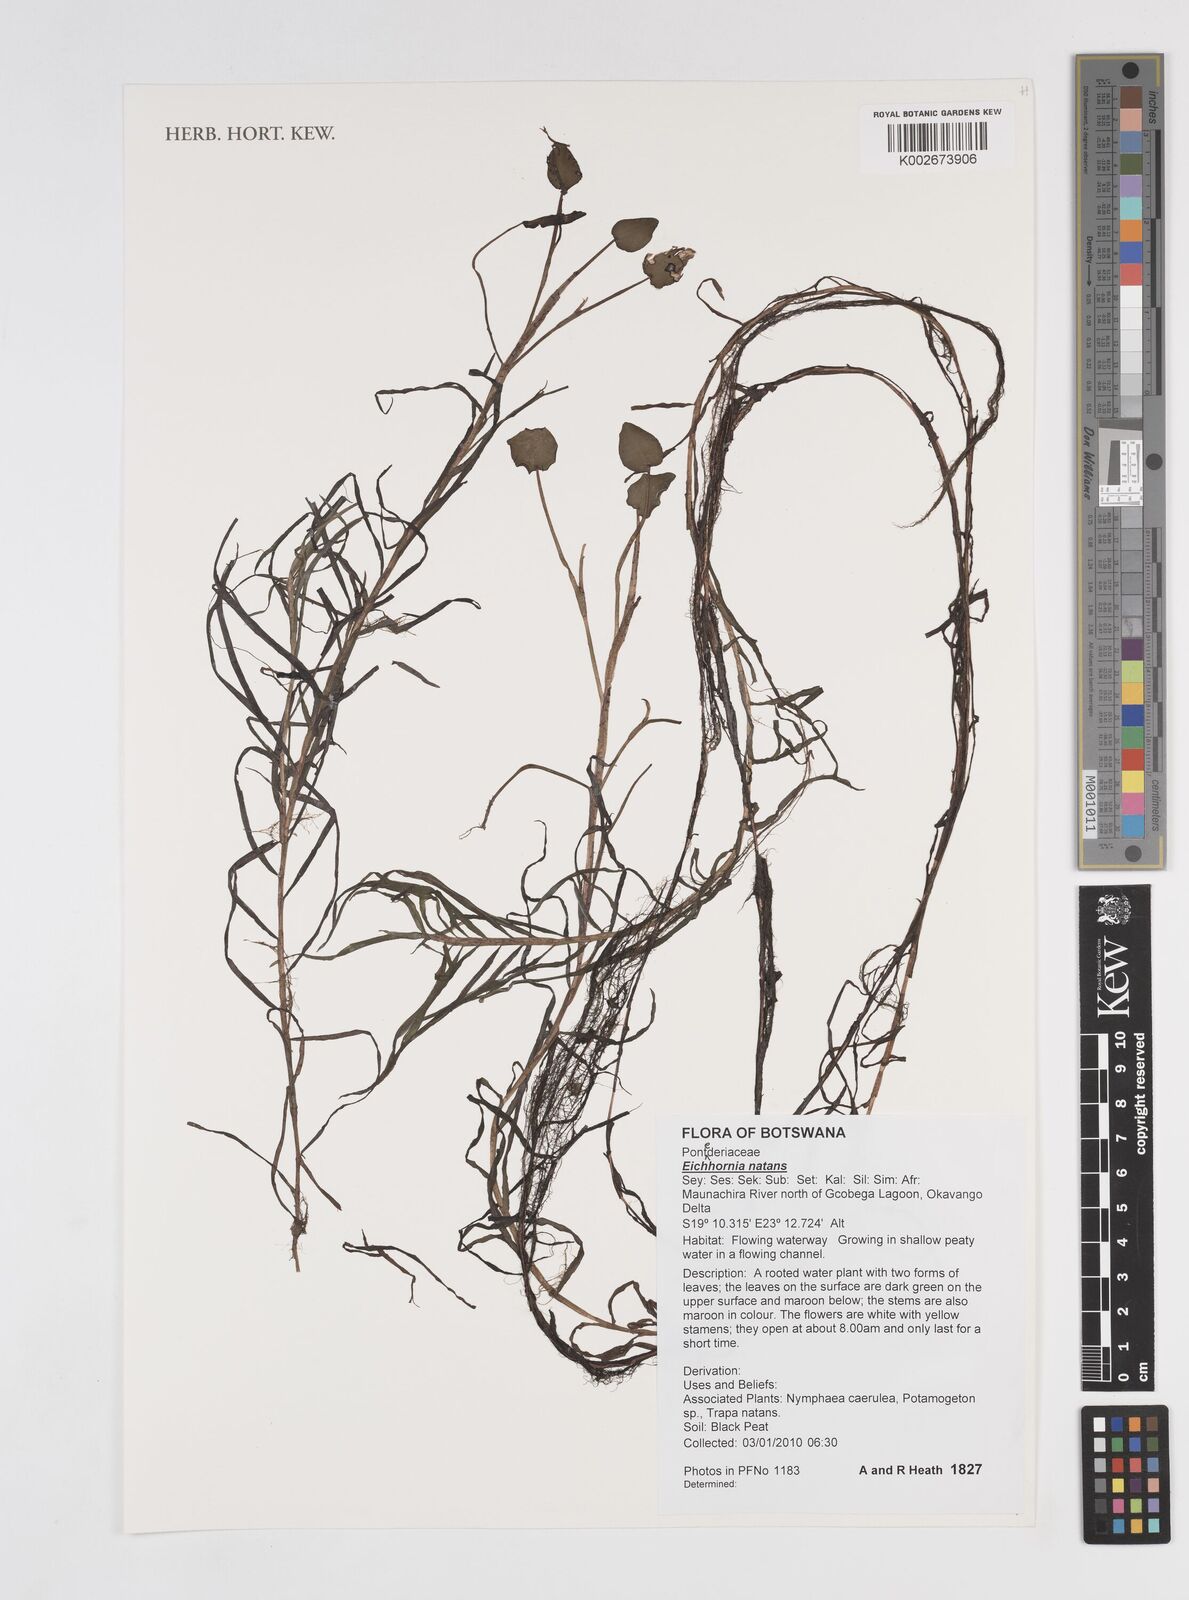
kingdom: Plantae
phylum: Tracheophyta
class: Liliopsida
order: Commelinales
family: Pontederiaceae
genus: Pontederia
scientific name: Pontederia natans
